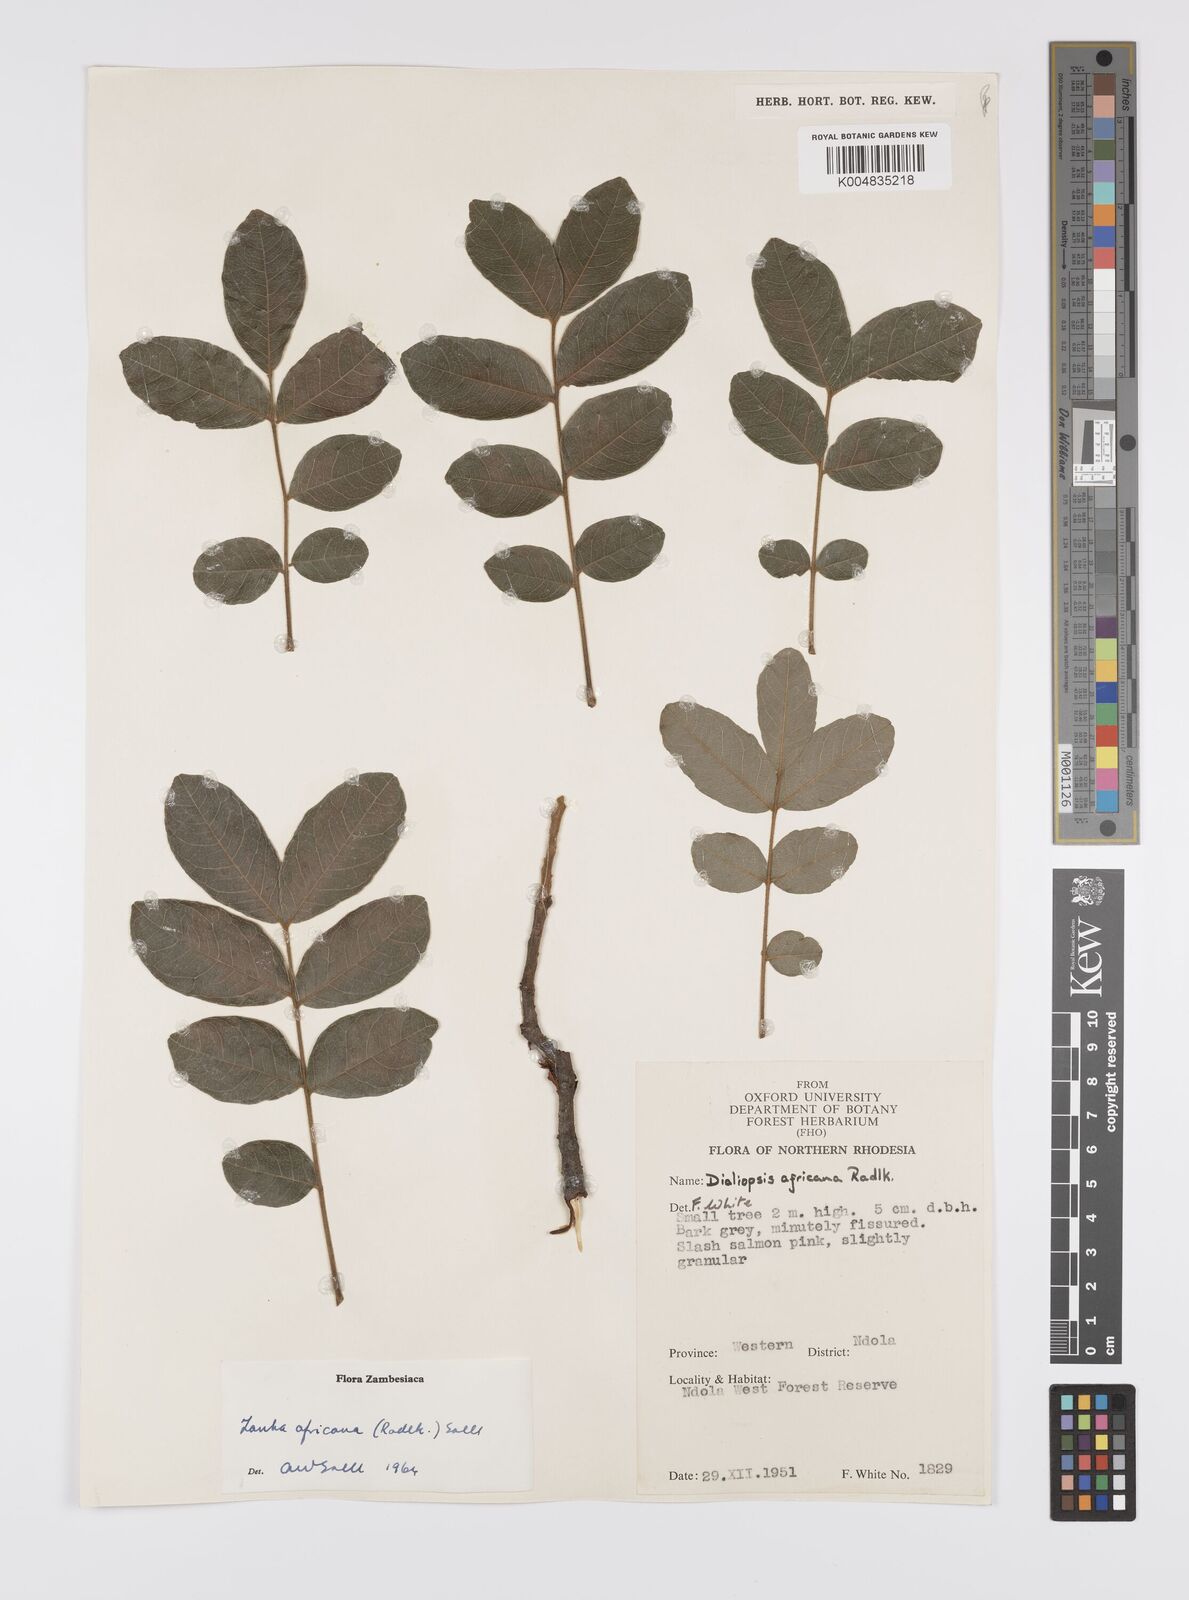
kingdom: Plantae
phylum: Tracheophyta
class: Magnoliopsida
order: Sapindales
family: Sapindaceae
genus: Zanha
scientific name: Zanha africana
